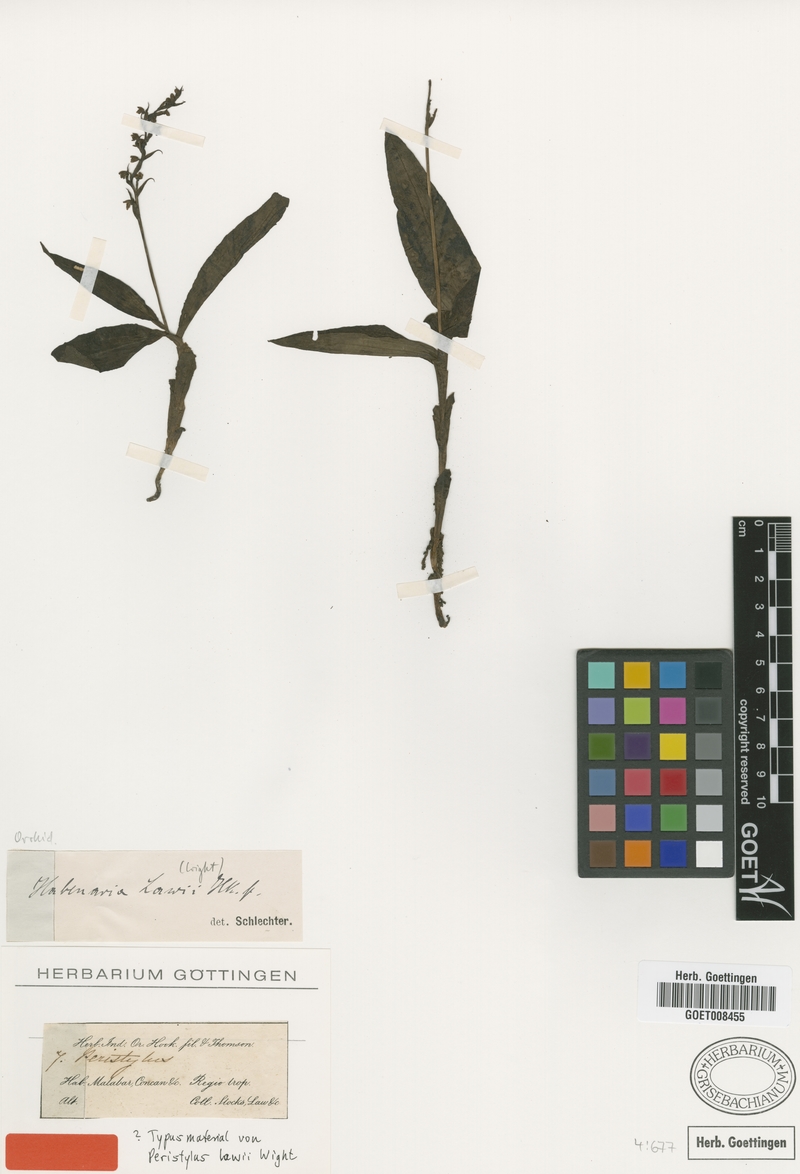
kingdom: Plantae
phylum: Tracheophyta
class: Liliopsida
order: Asparagales
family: Orchidaceae
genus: Peristylus
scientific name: Peristylus lawii
